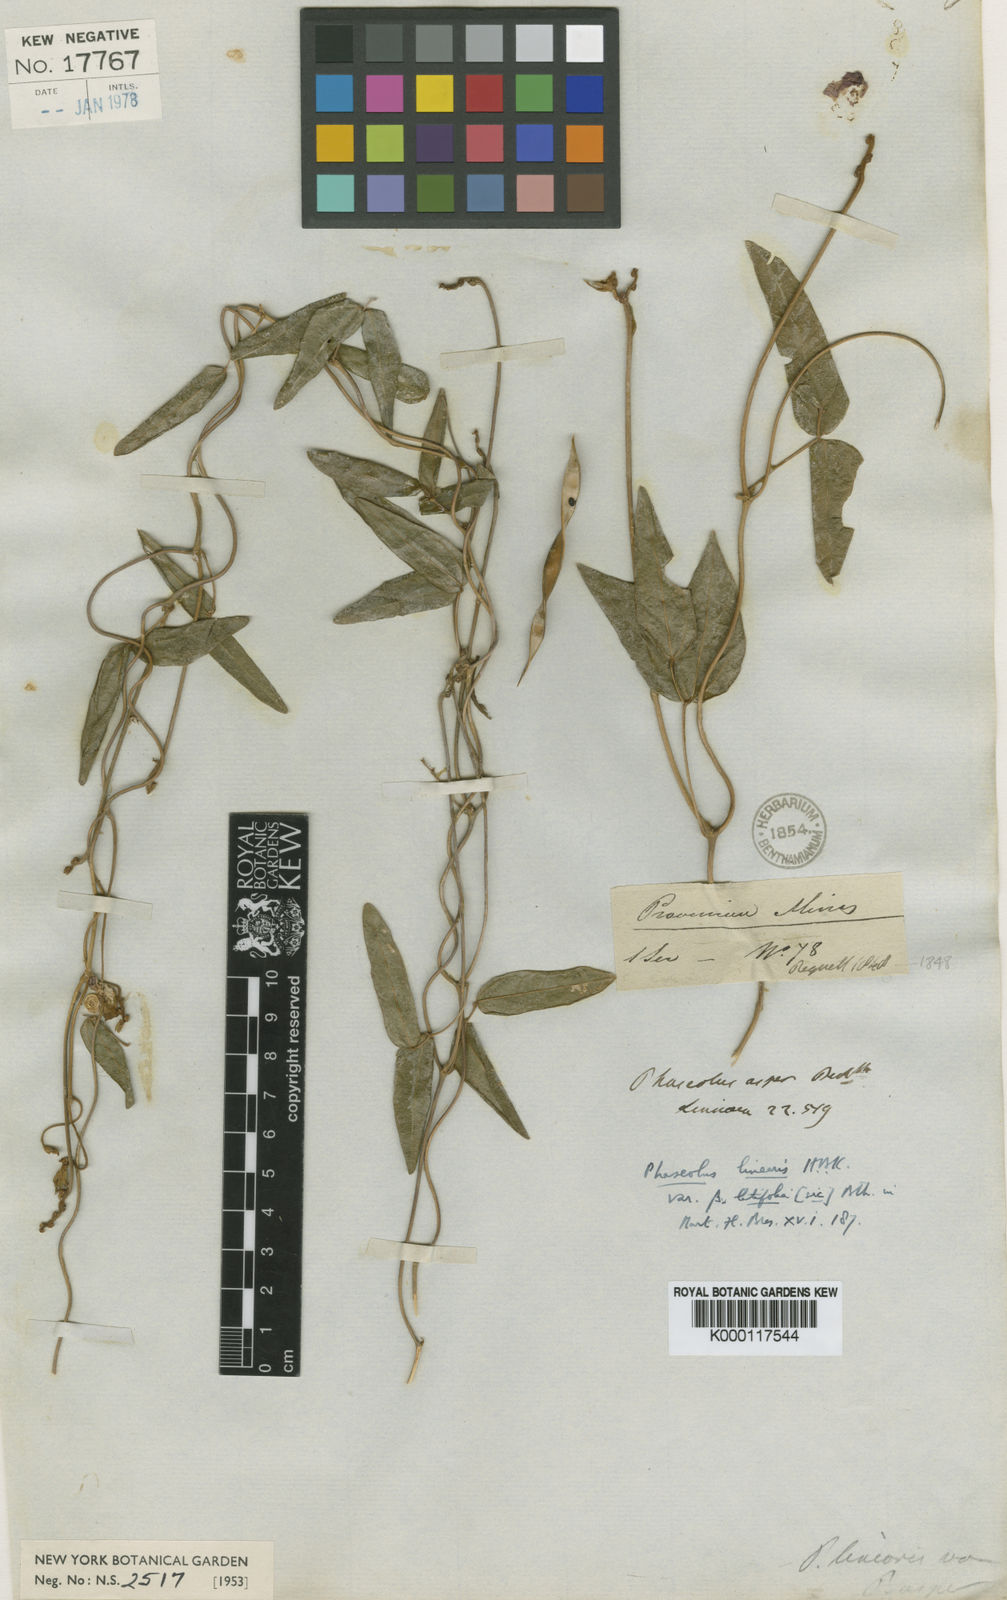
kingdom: Plantae
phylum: Tracheophyta
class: Magnoliopsida
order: Fabales
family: Fabaceae
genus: Helicotropis
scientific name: Helicotropis linearis
